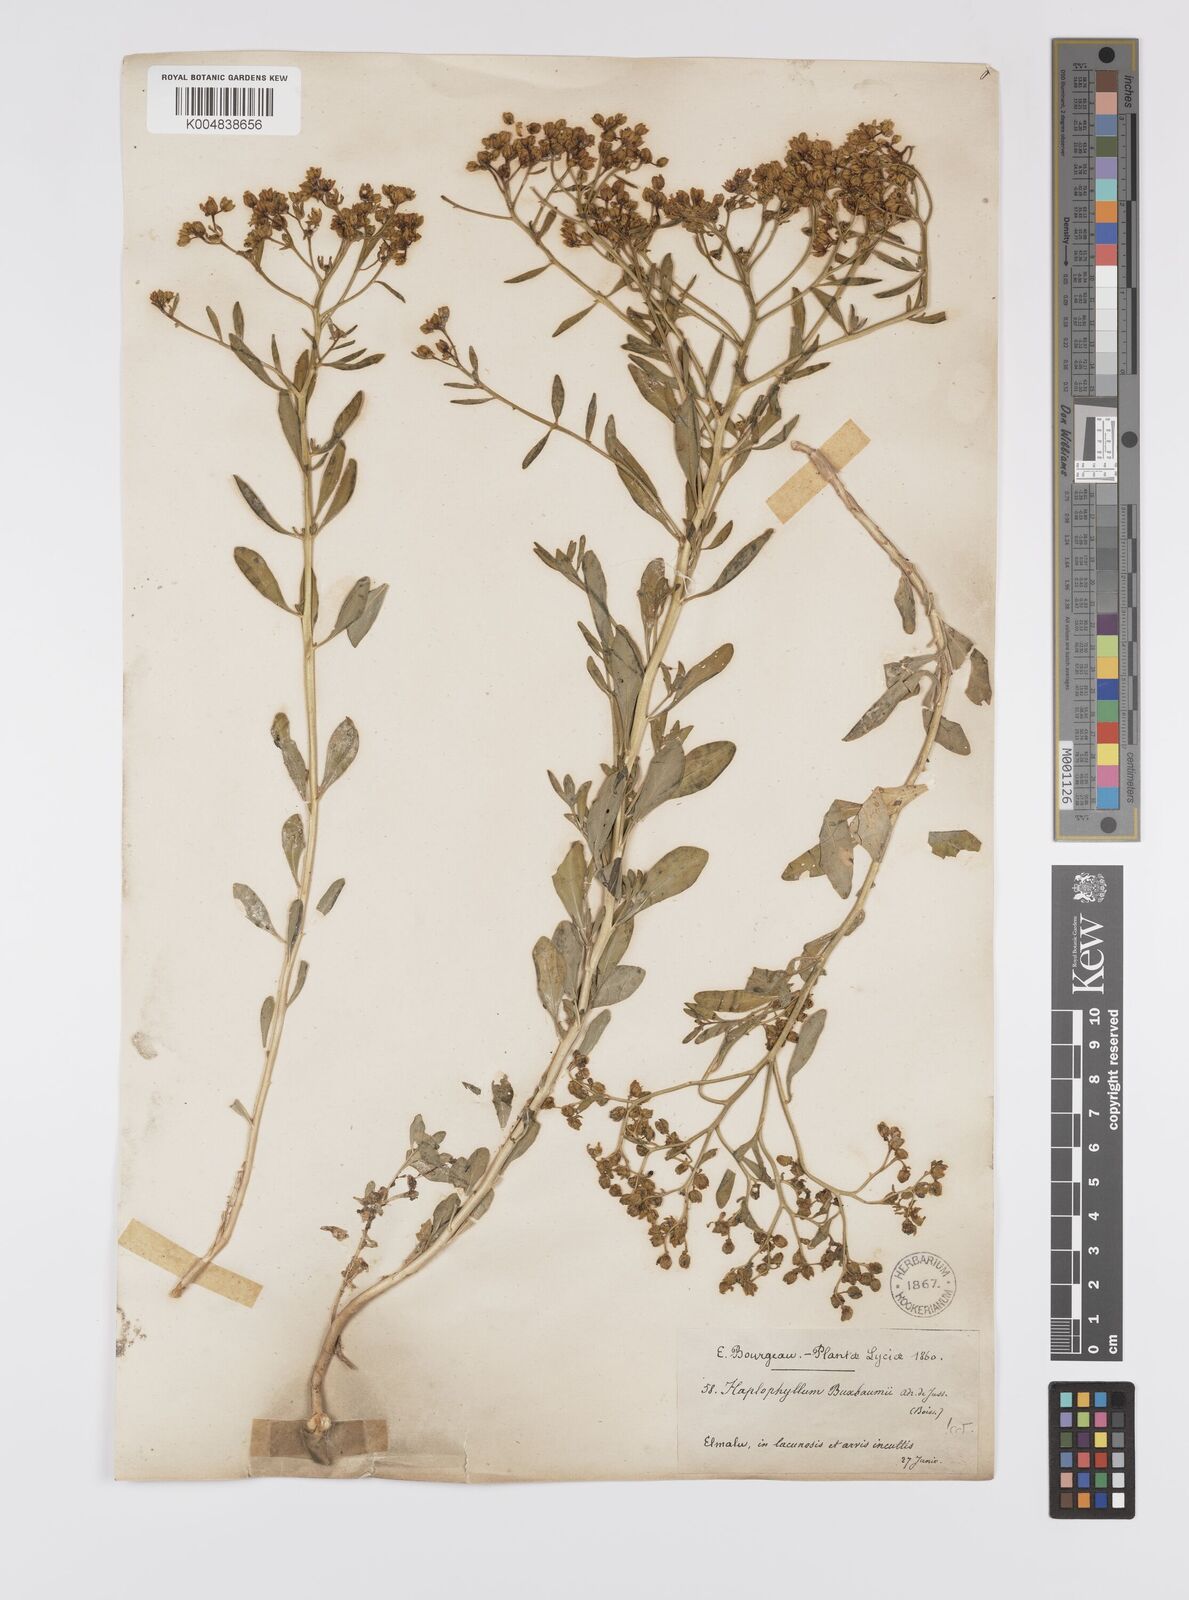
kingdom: Plantae
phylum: Tracheophyta
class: Magnoliopsida
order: Sapindales
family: Rutaceae
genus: Haplophyllum
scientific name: Haplophyllum
